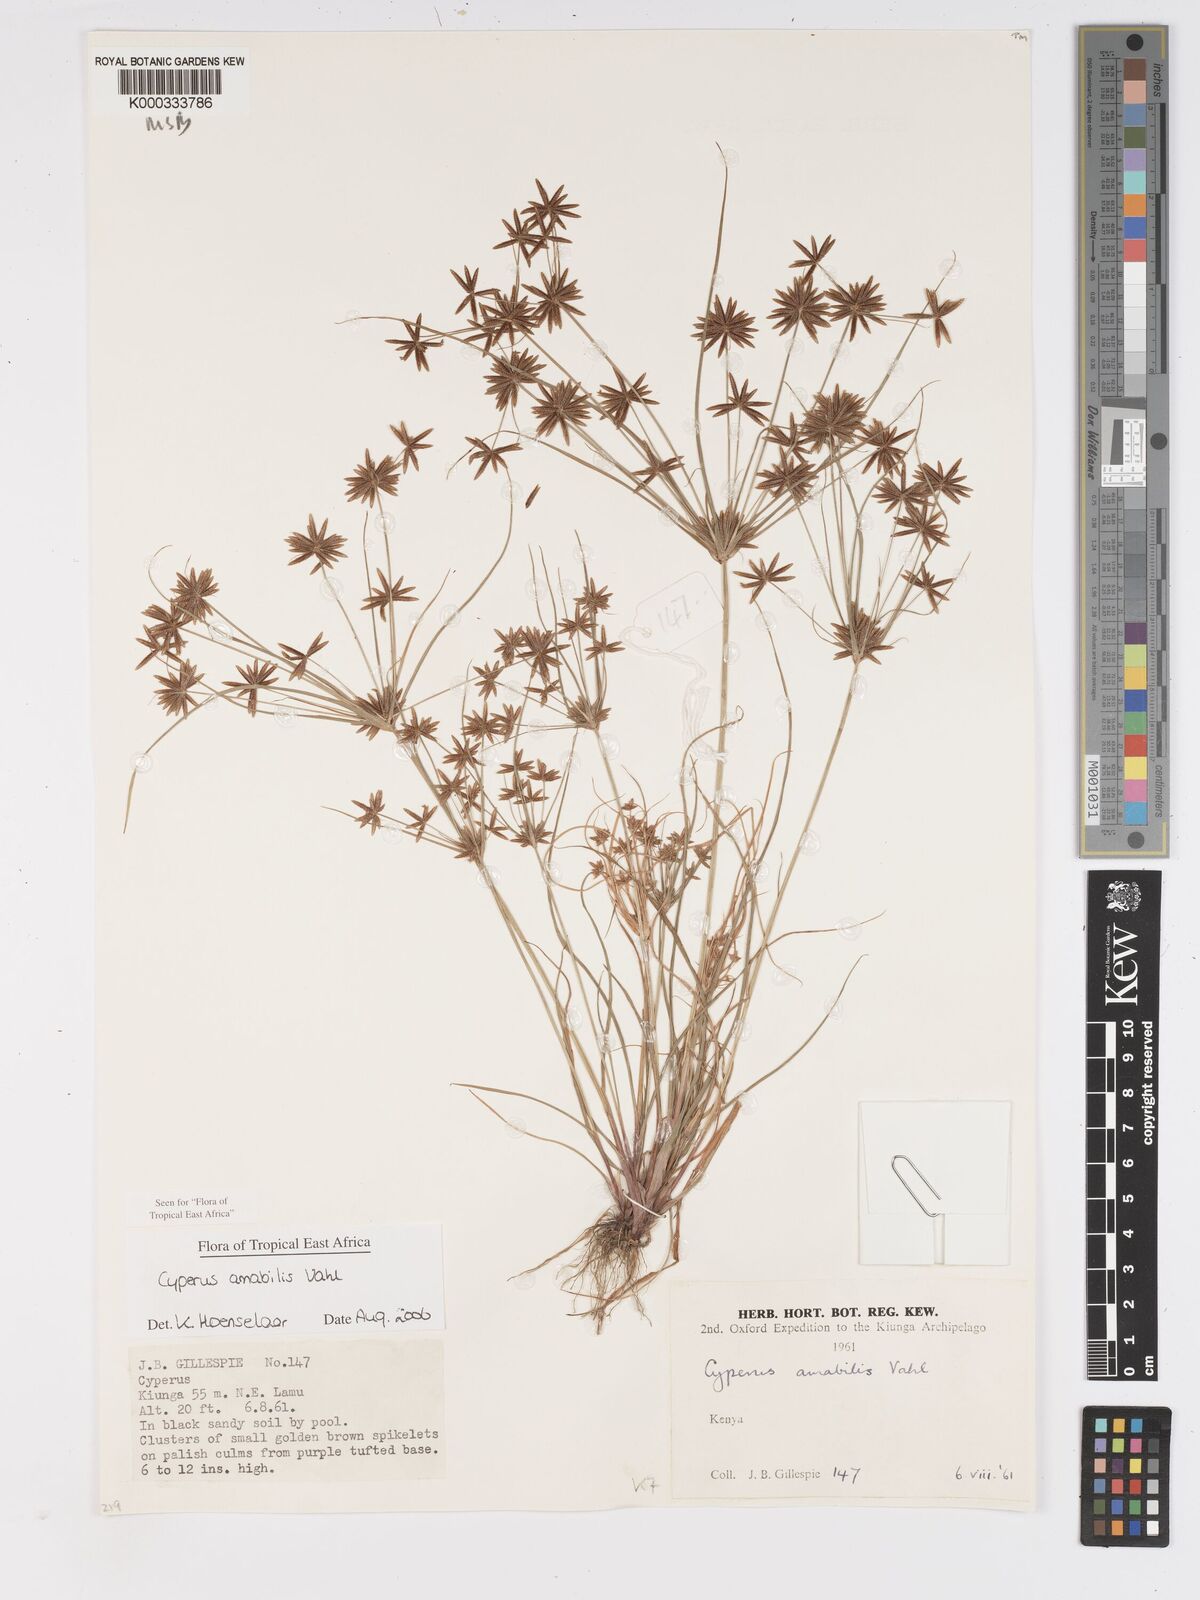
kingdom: Plantae
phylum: Tracheophyta
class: Liliopsida
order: Poales
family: Cyperaceae
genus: Cyperus
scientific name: Cyperus amabilis
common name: Foothill flat sedge
